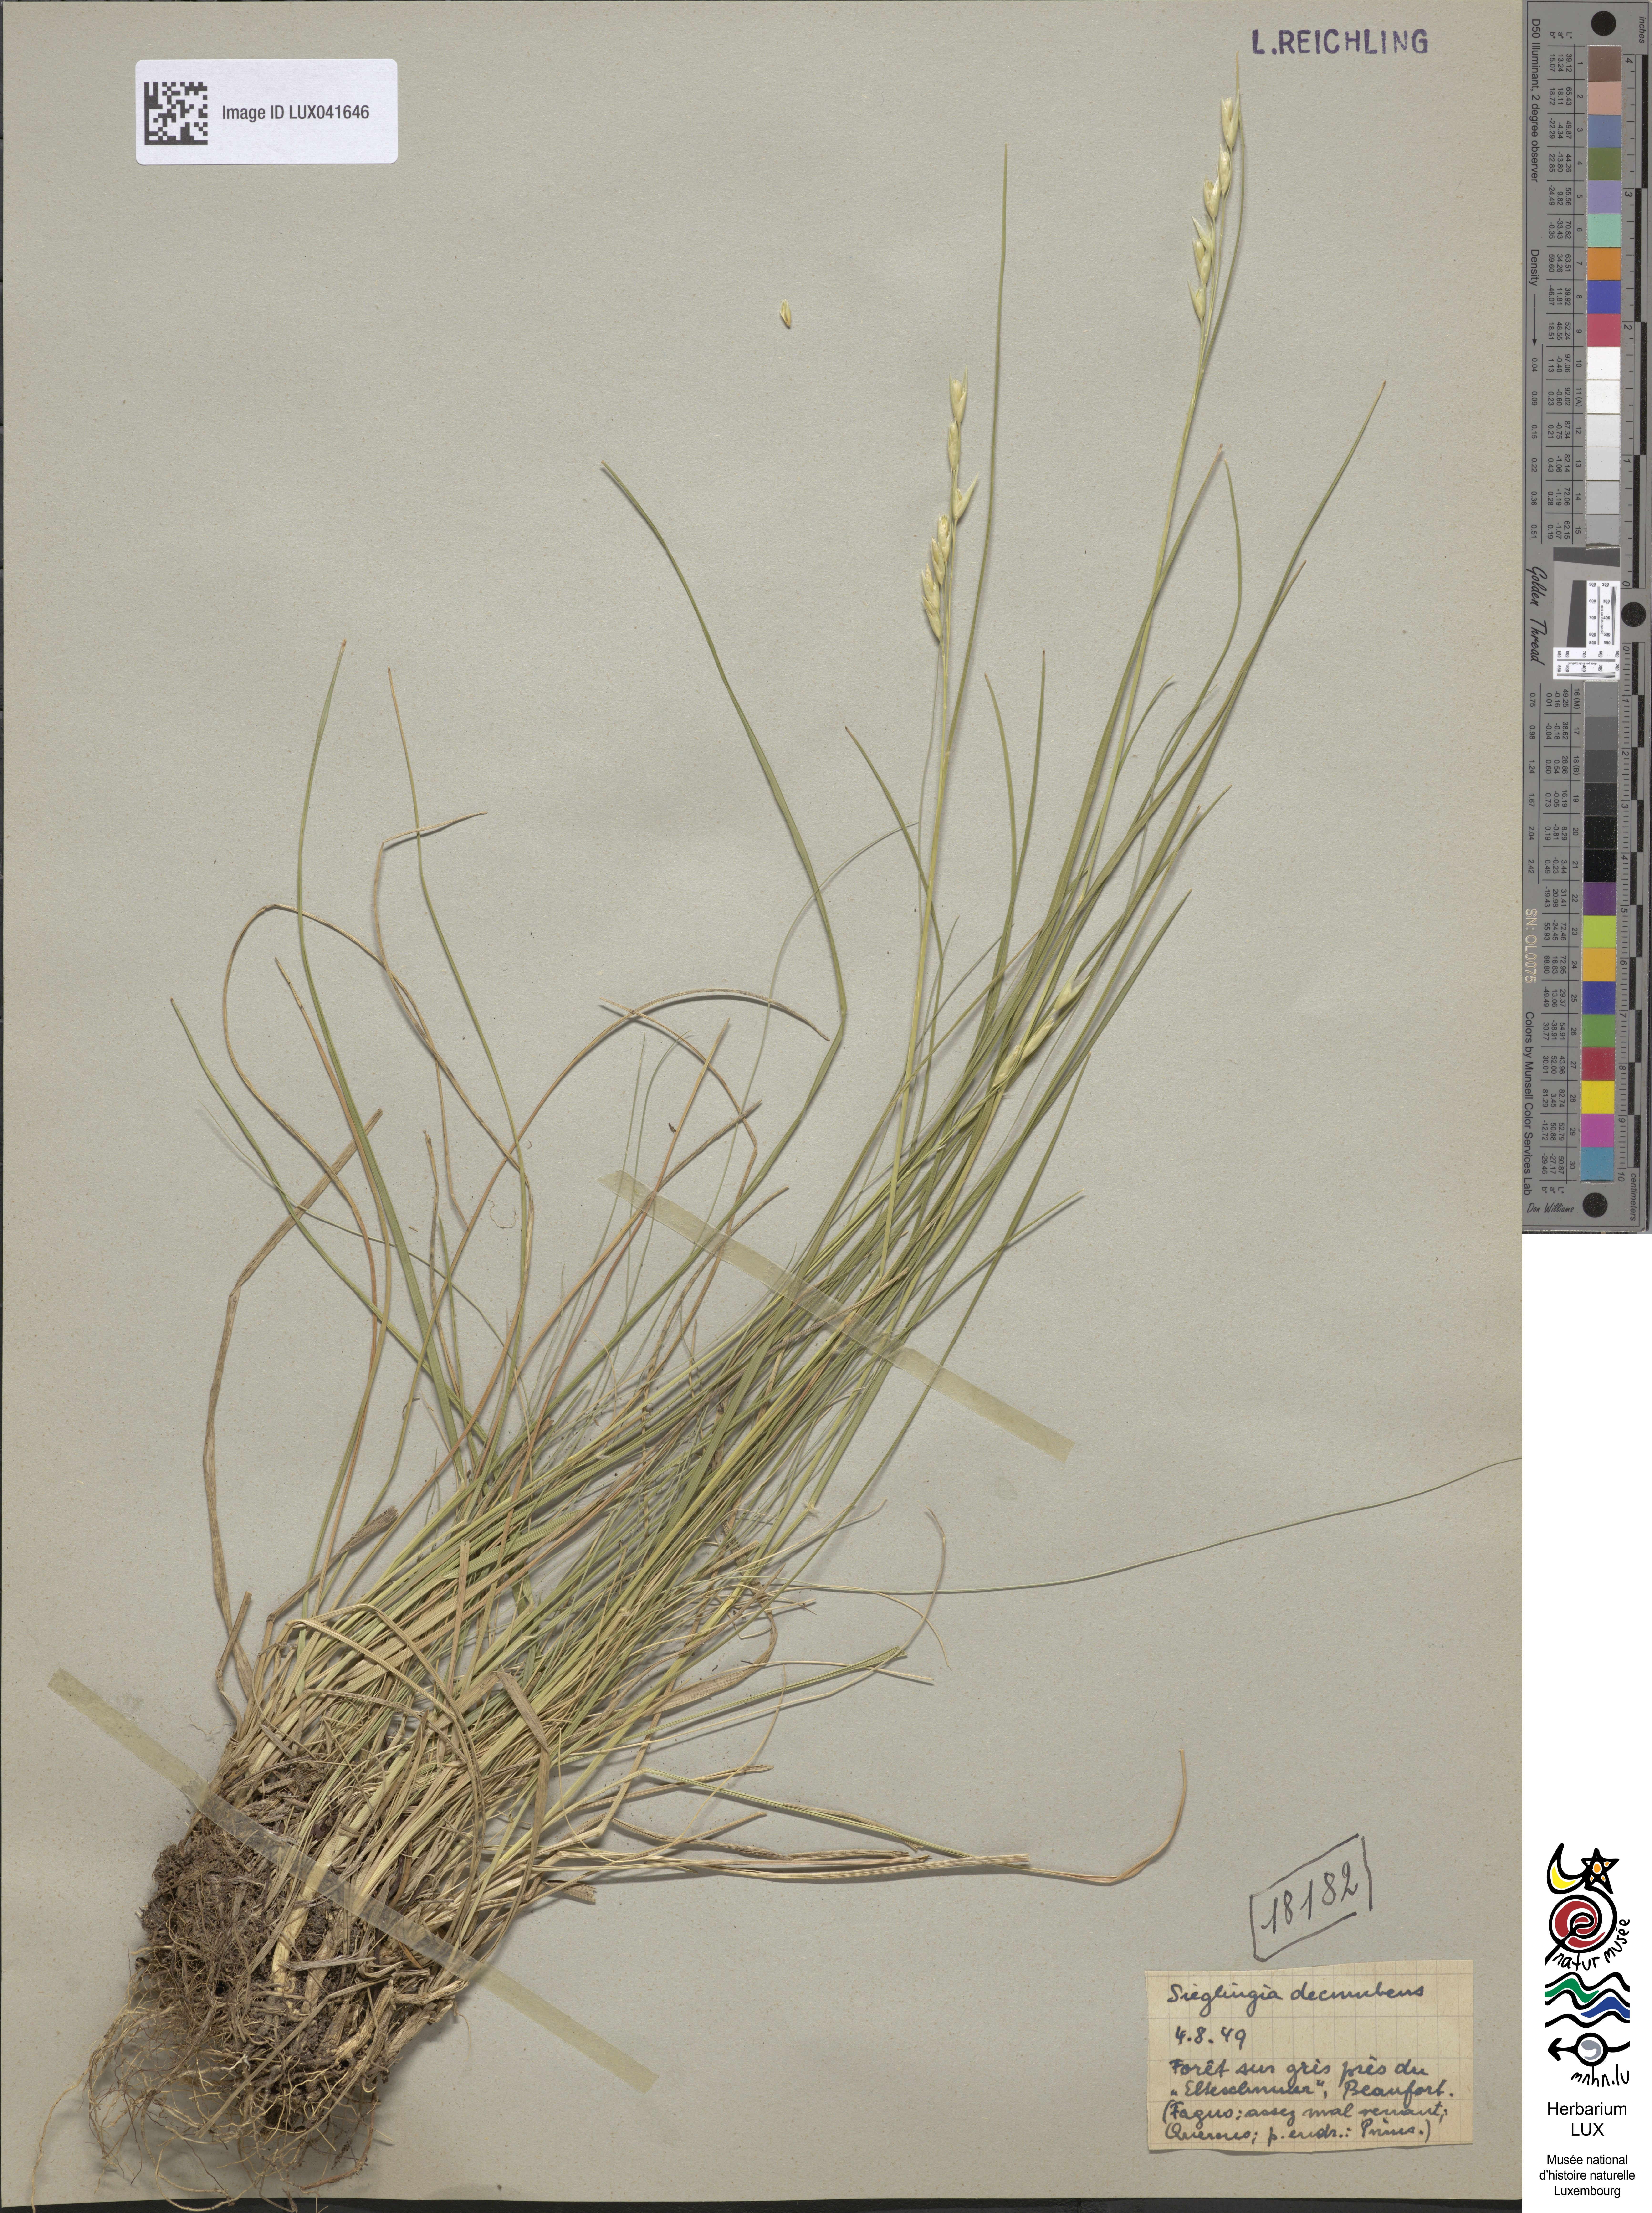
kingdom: Plantae
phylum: Tracheophyta
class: Liliopsida
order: Poales
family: Poaceae
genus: Danthonia
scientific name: Danthonia decumbens
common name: Common heathgrass
